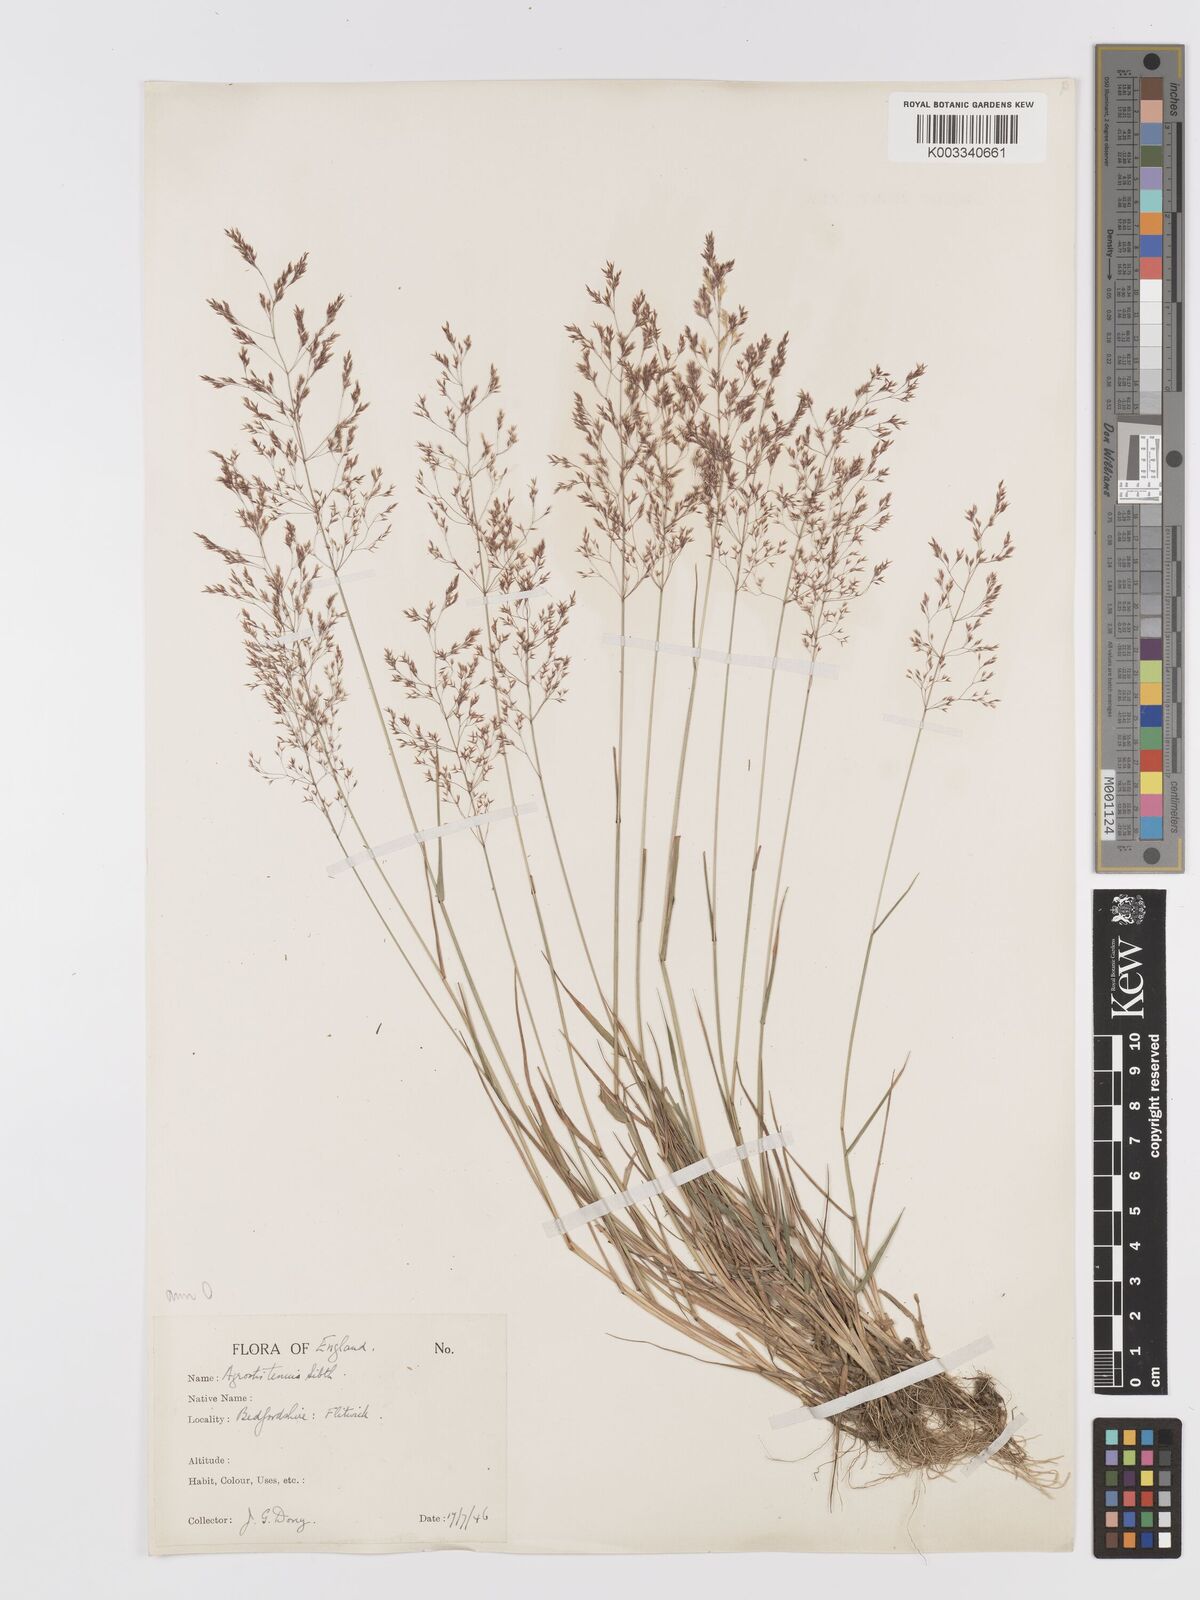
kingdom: Plantae
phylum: Tracheophyta
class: Liliopsida
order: Poales
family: Poaceae
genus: Agrostis
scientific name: Agrostis capillaris
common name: Colonial bentgrass
